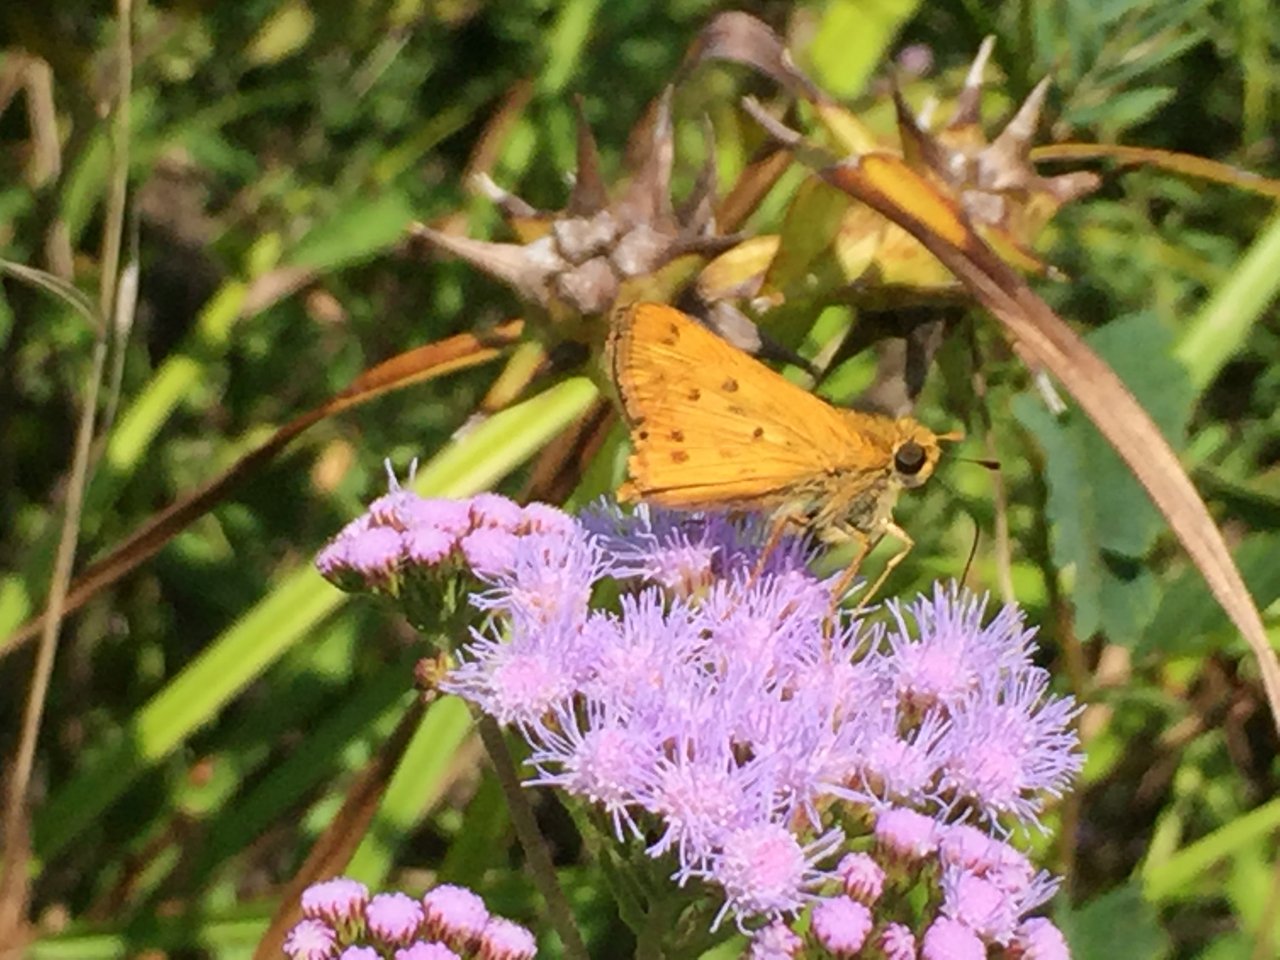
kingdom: Animalia
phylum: Arthropoda
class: Insecta
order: Lepidoptera
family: Hesperiidae
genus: Hylephila
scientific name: Hylephila phyleus
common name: Fiery Skipper
